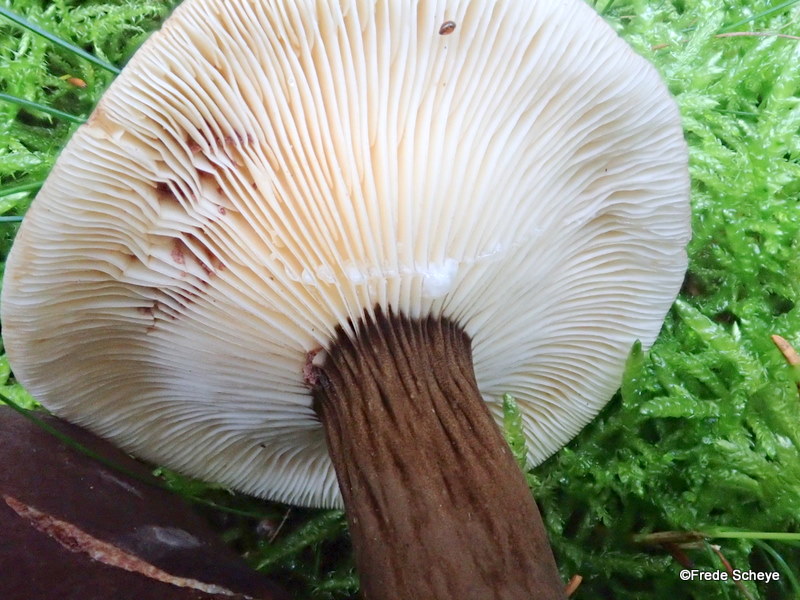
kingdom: Fungi
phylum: Basidiomycota
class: Agaricomycetes
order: Russulales
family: Russulaceae
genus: Lactarius
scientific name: Lactarius lignyotus
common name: fløjls-mælkehat
